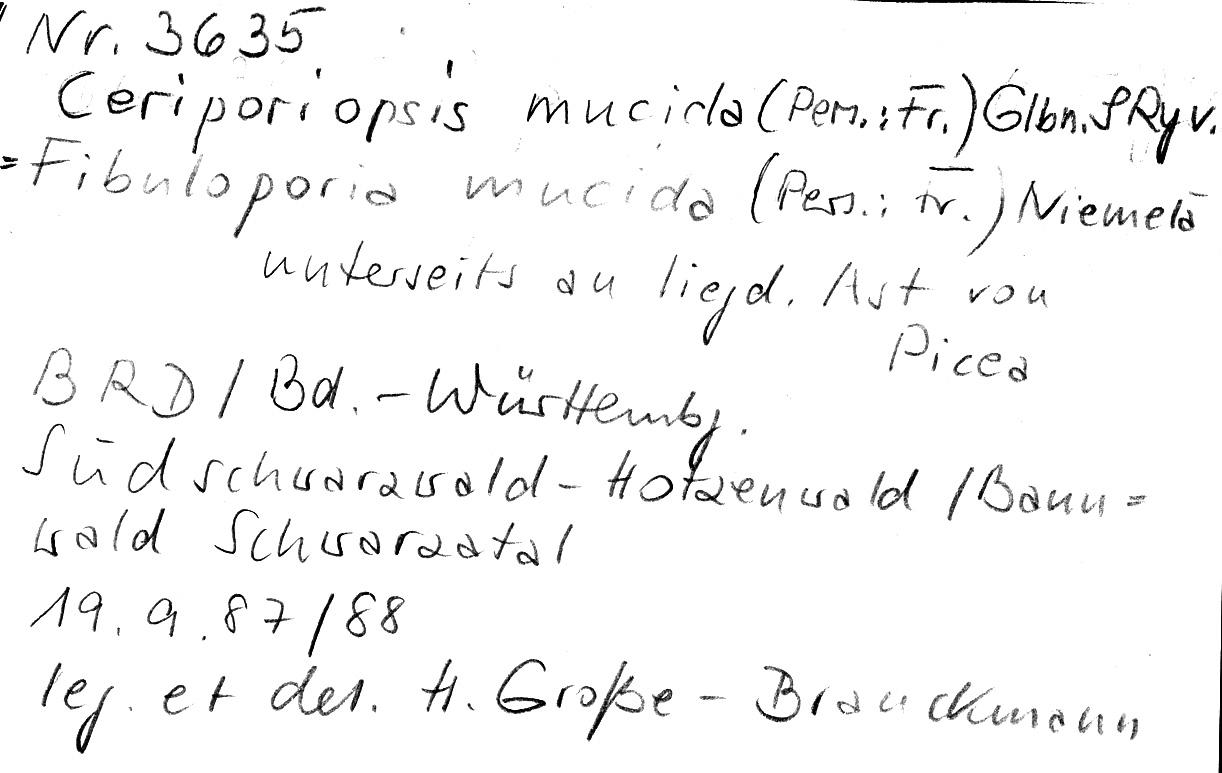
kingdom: Fungi
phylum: Basidiomycota
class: Agaricomycetes
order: Polyporales
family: Meruliaceae
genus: Ceriporiopsis
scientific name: Ceriporiopsis mucida
